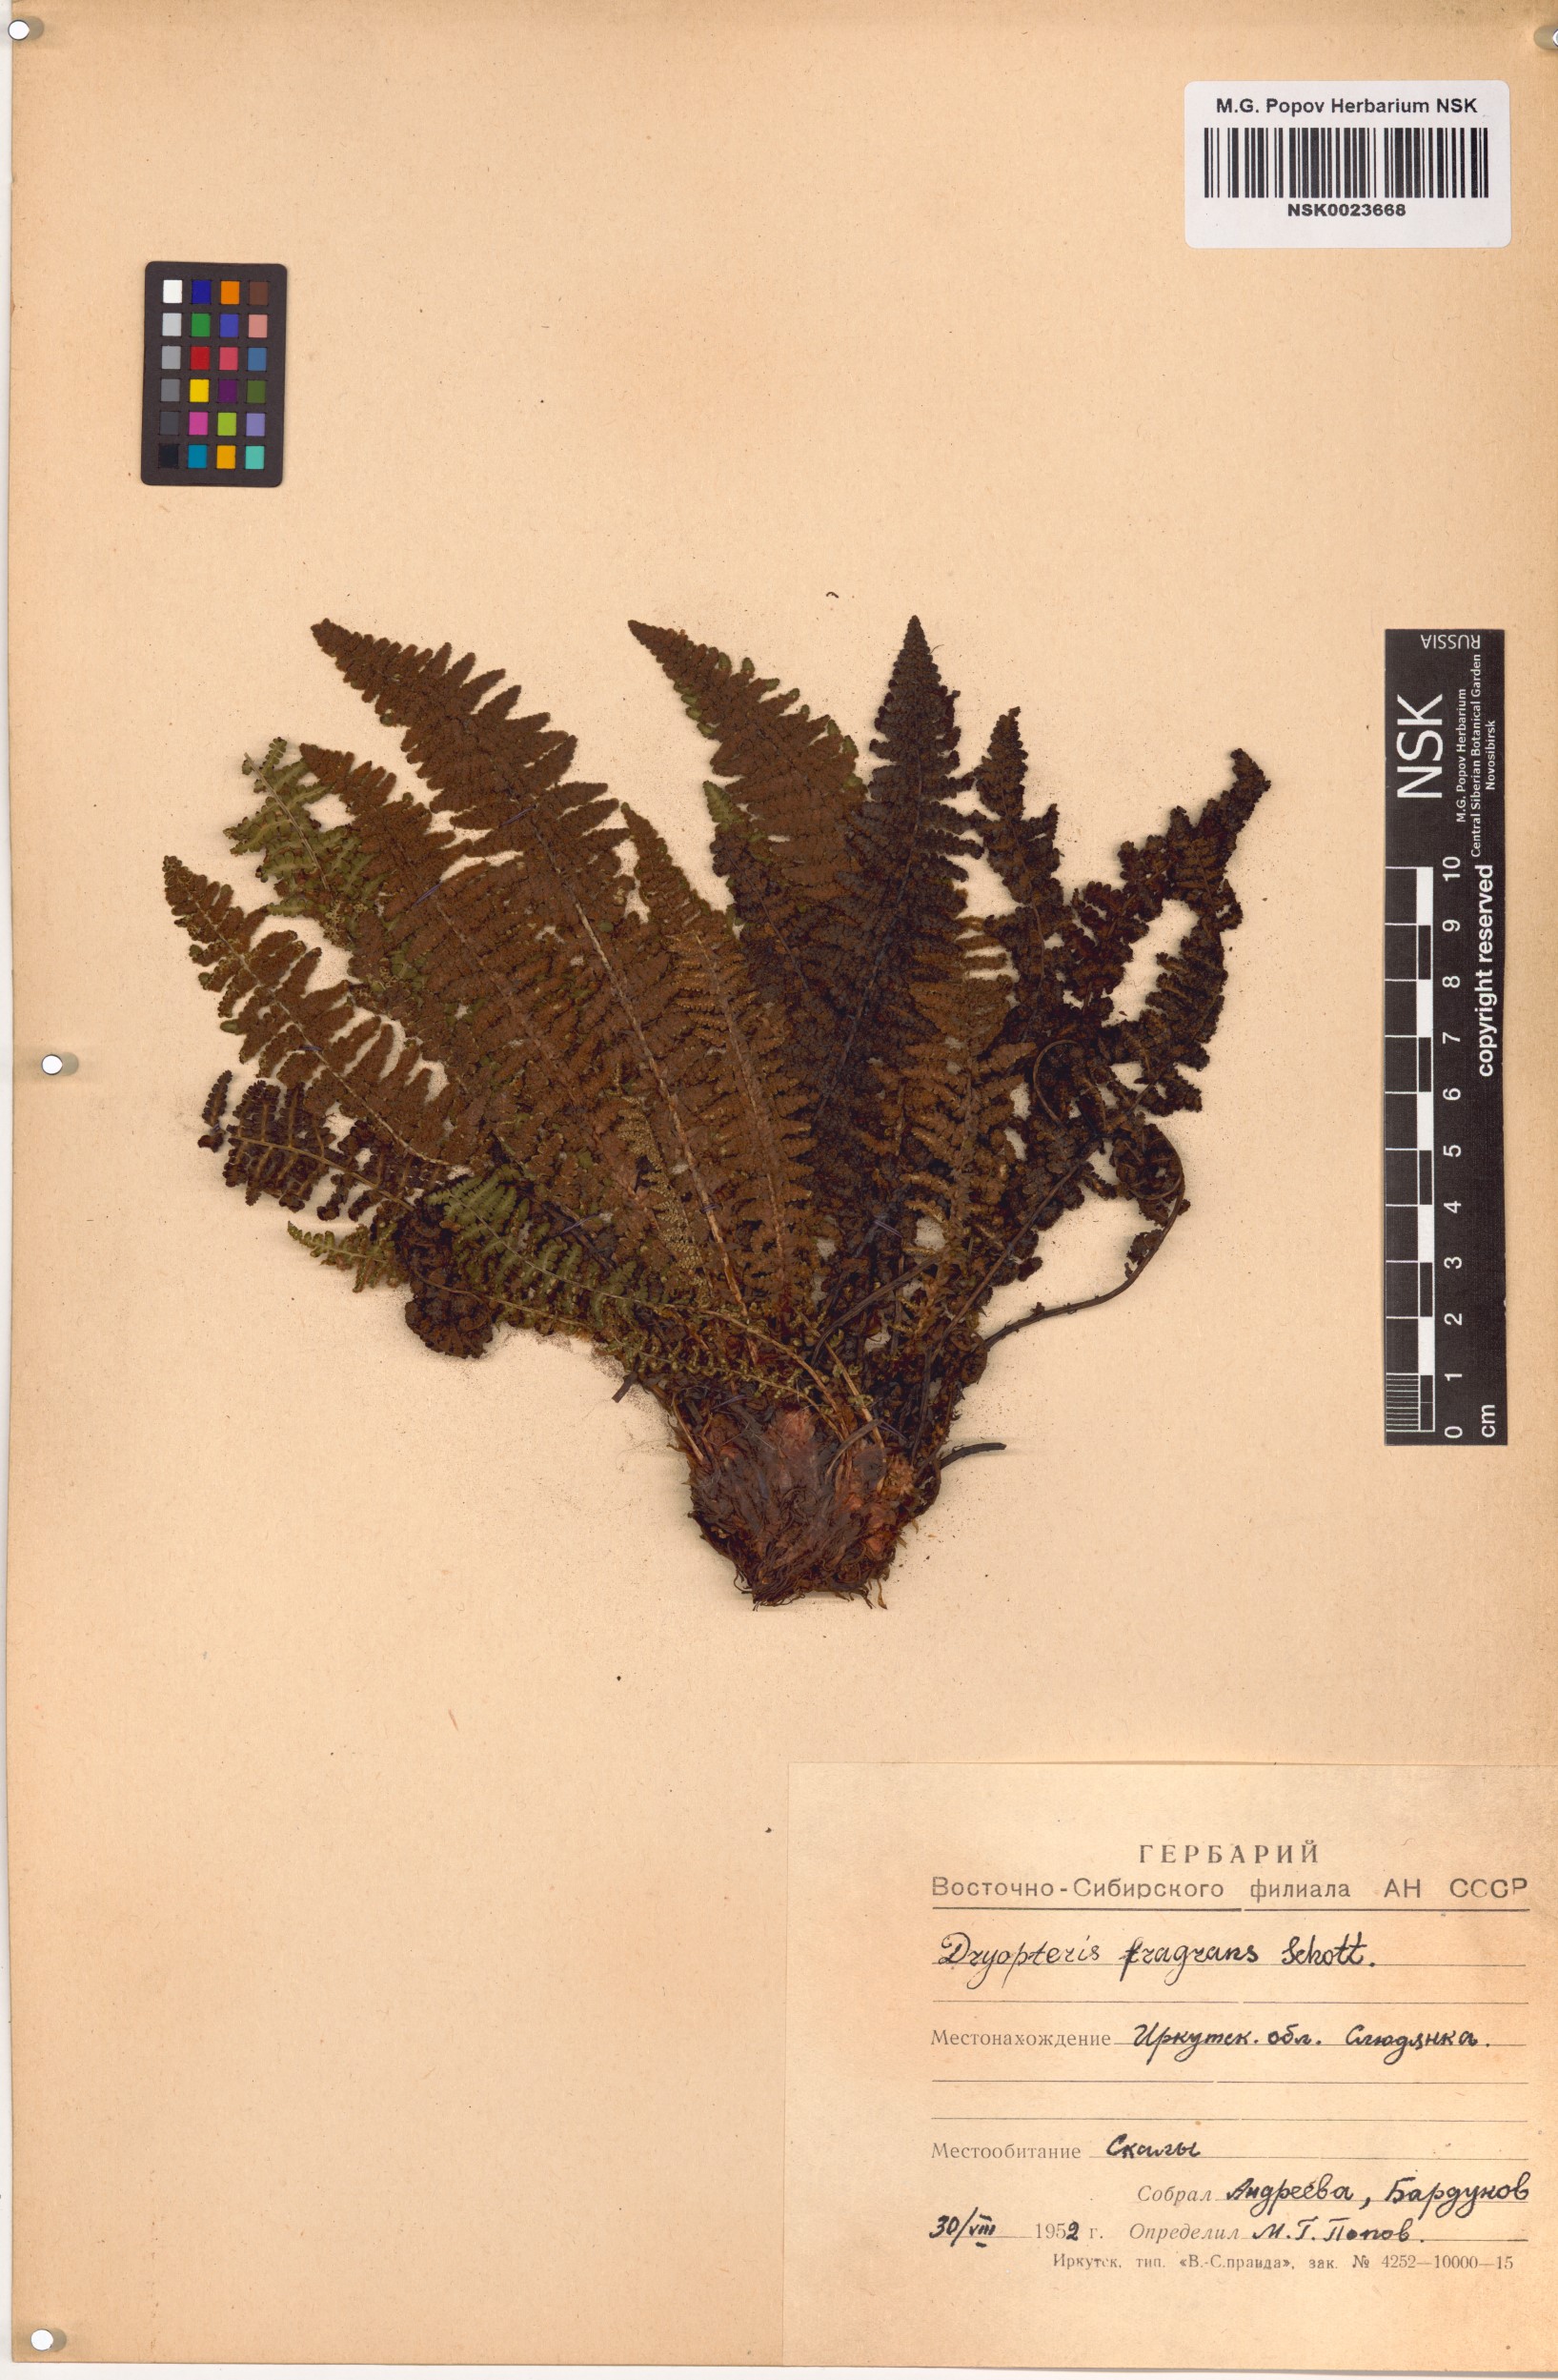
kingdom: Plantae
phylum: Tracheophyta
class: Polypodiopsida
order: Polypodiales
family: Dryopteridaceae
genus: Dryopteris
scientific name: Dryopteris fragrans
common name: Fragrant wood fern
